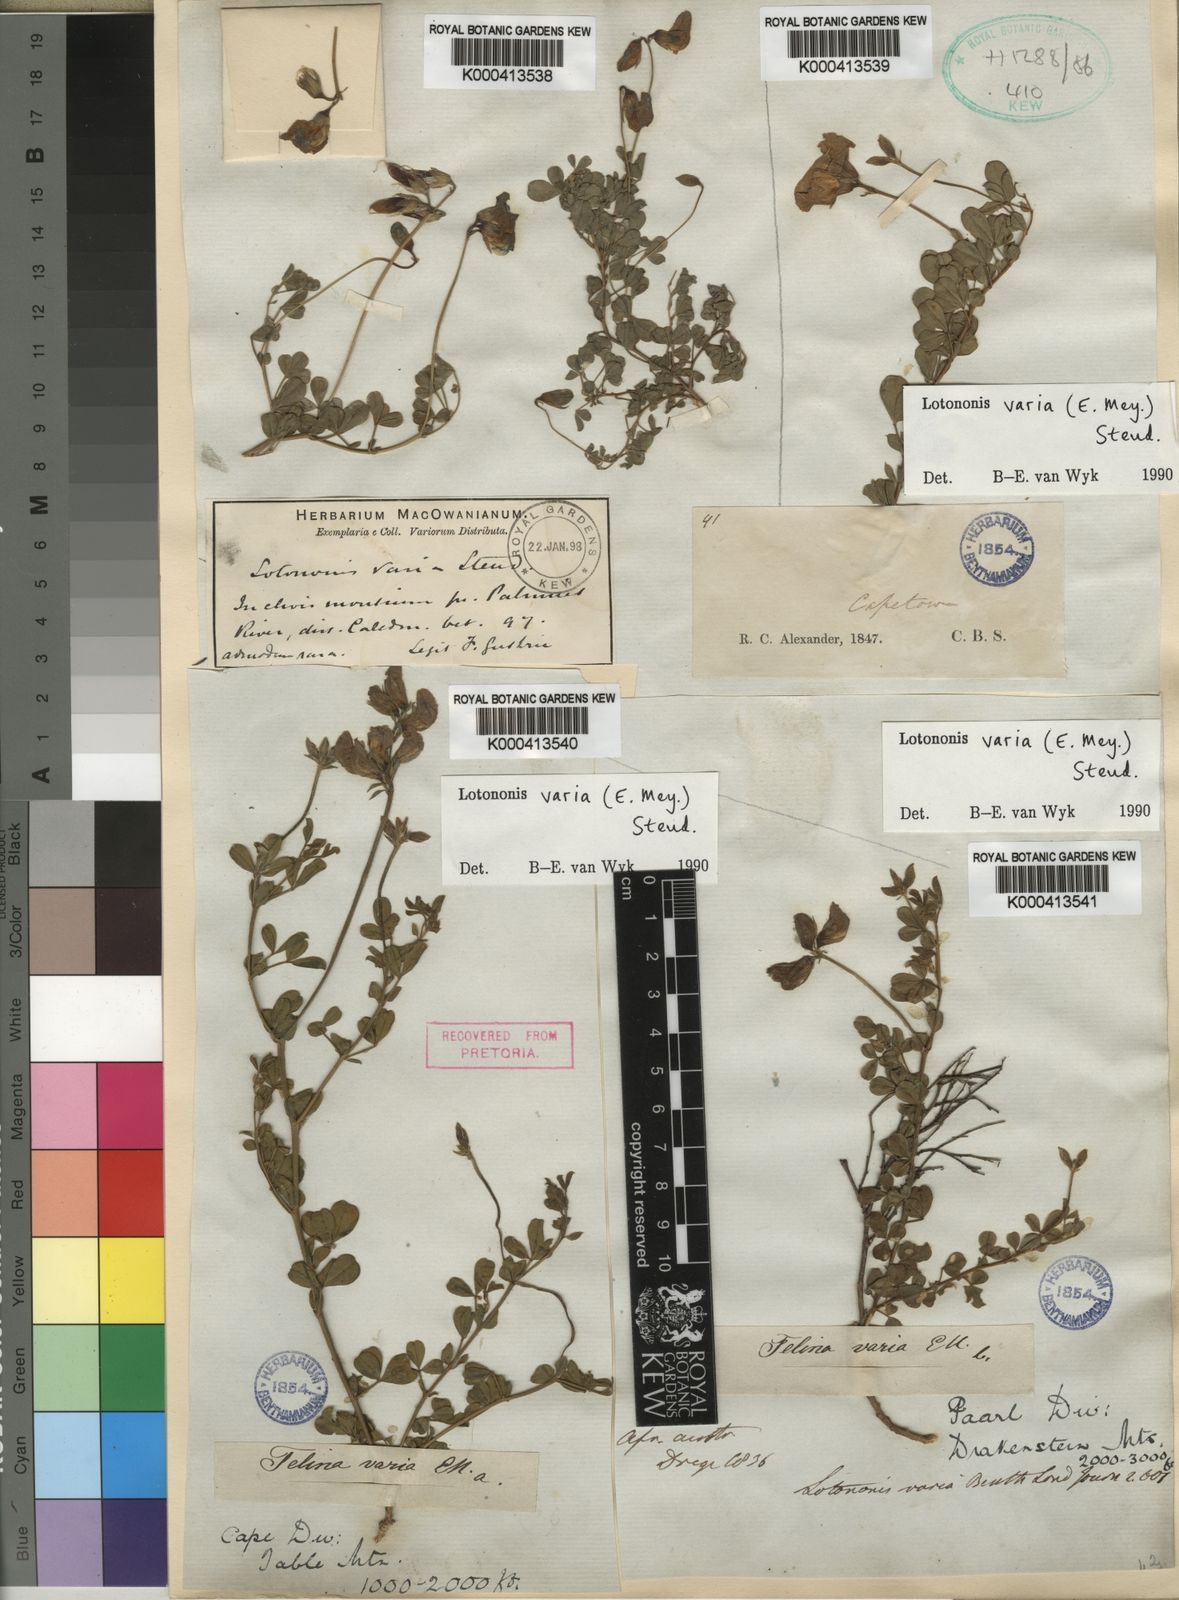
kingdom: Plantae
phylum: Tracheophyta
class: Magnoliopsida
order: Fabales
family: Fabaceae
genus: Lotononis
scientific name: Lotononis varia
